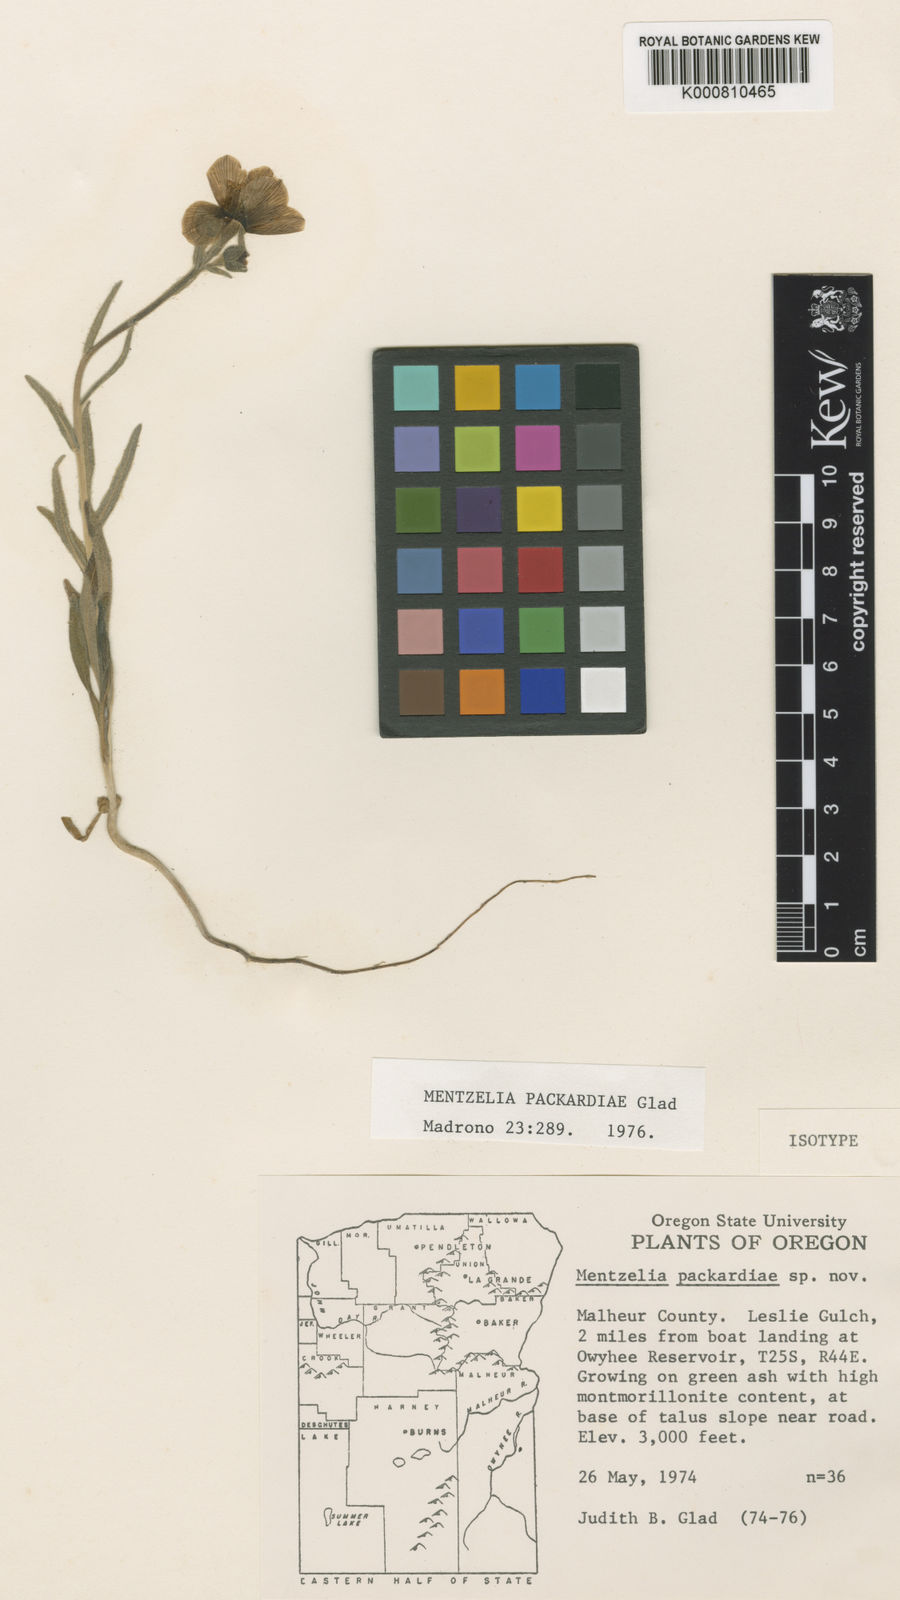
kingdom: Plantae
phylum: Tracheophyta
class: Magnoliopsida
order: Cornales
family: Loasaceae
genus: Mentzelia
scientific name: Mentzelia packardiae
